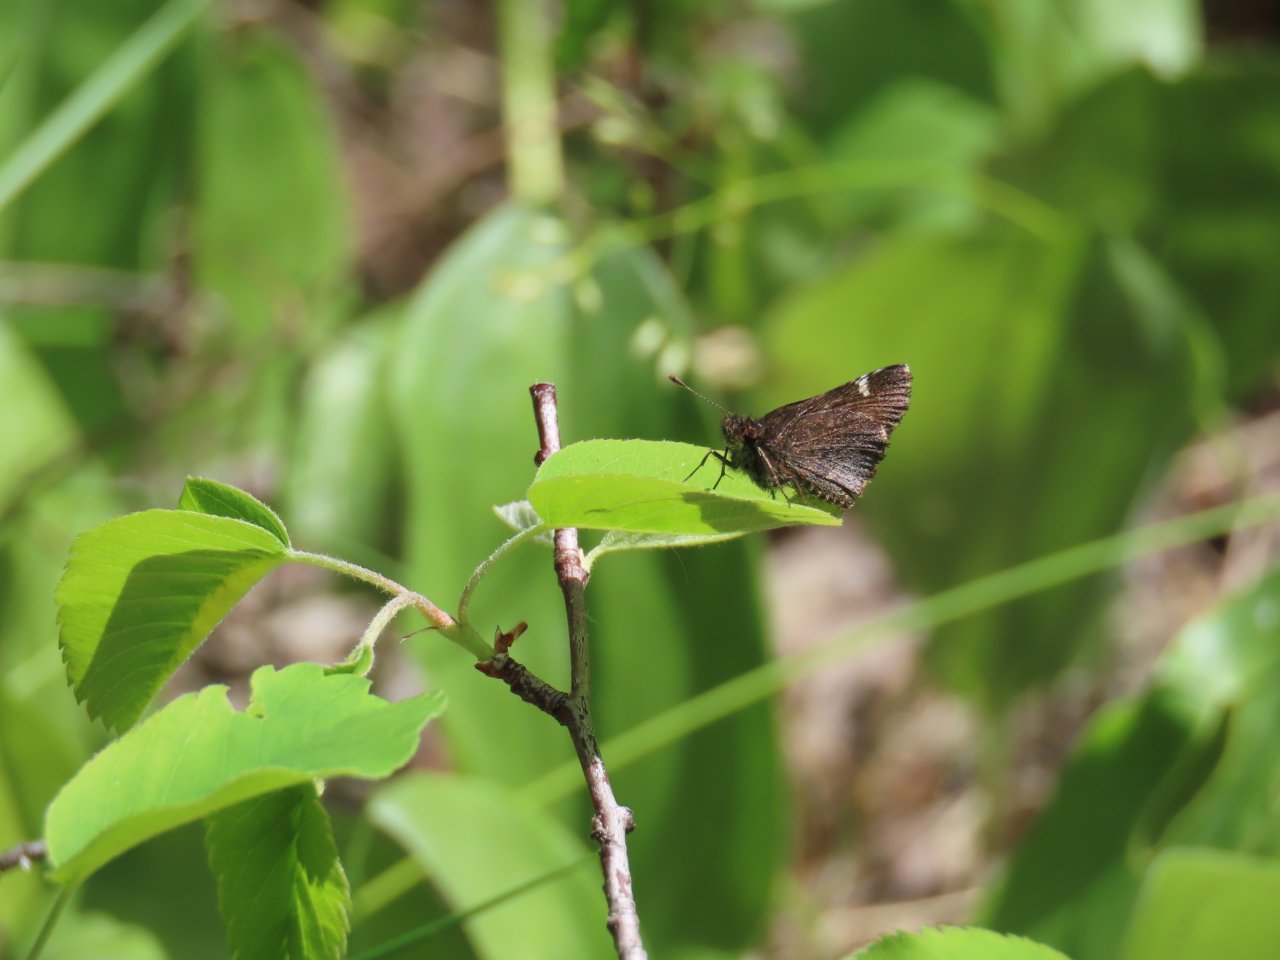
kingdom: Animalia
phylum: Arthropoda
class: Insecta
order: Lepidoptera
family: Hesperiidae
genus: Mastor
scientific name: Mastor vialis
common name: Common Roadside-Skipper
